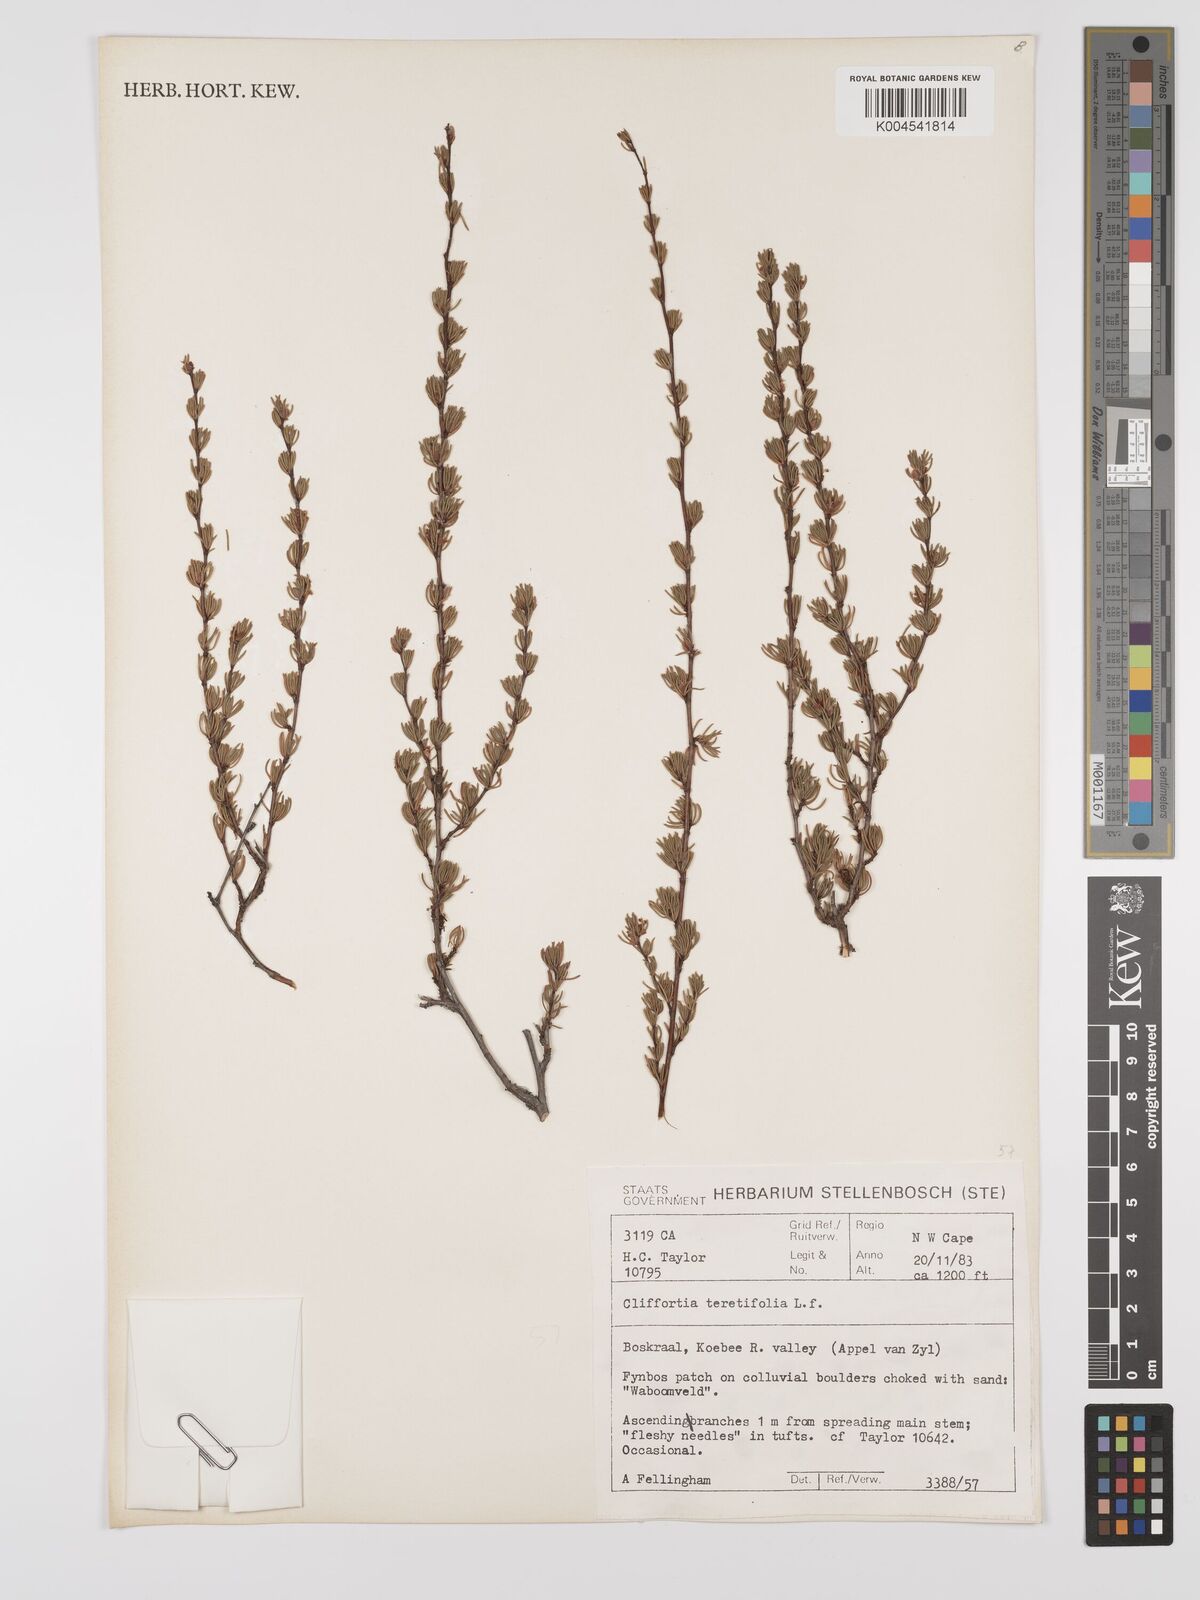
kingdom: Plantae
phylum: Tracheophyta
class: Magnoliopsida
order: Rosales
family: Rosaceae
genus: Cliffortia
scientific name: Cliffortia teretifolia
